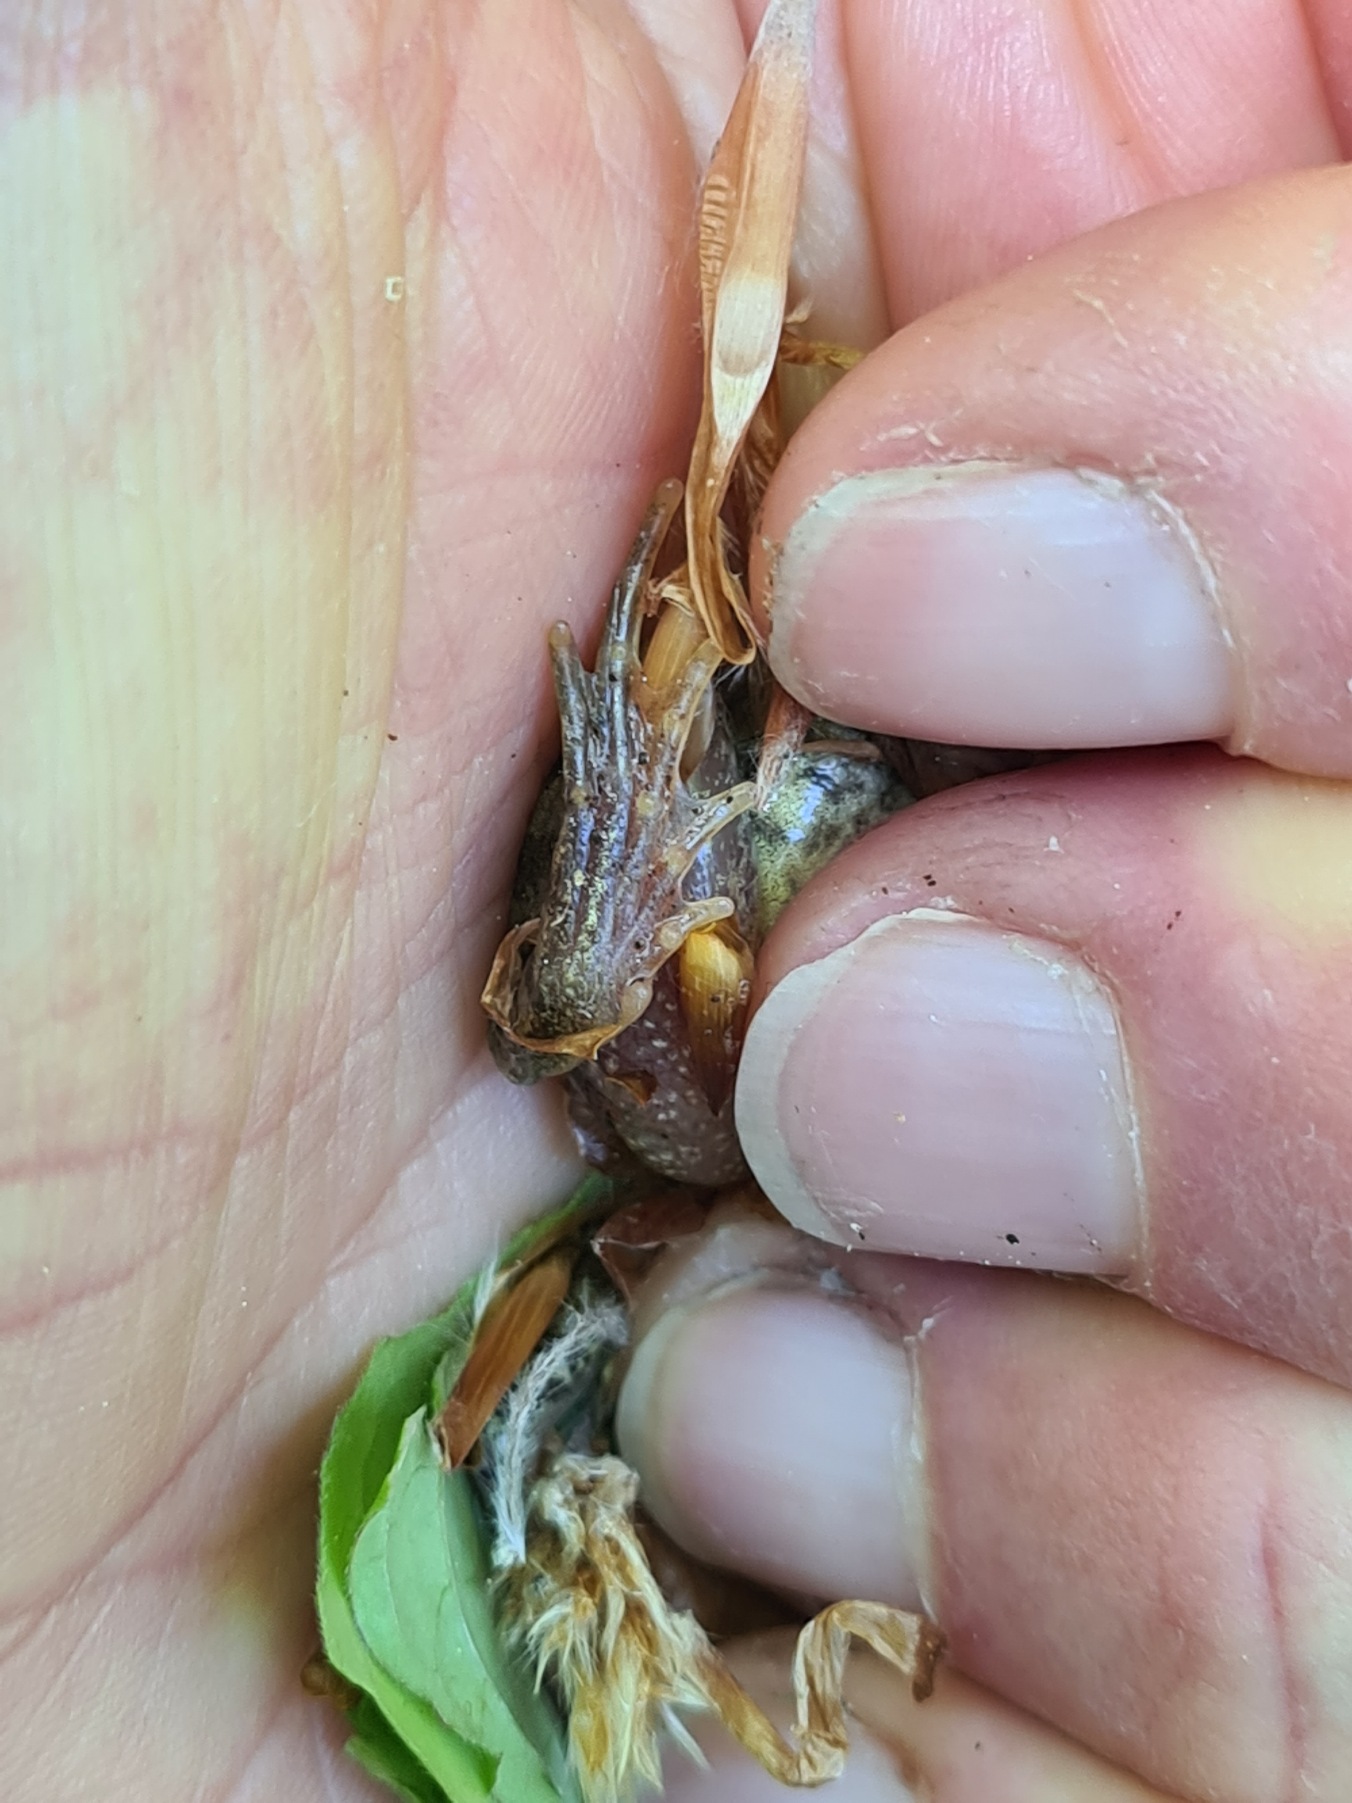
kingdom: Animalia
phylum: Chordata
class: Amphibia
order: Anura
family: Ranidae
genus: Rana
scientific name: Rana temporaria
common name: Butsnudet frø
